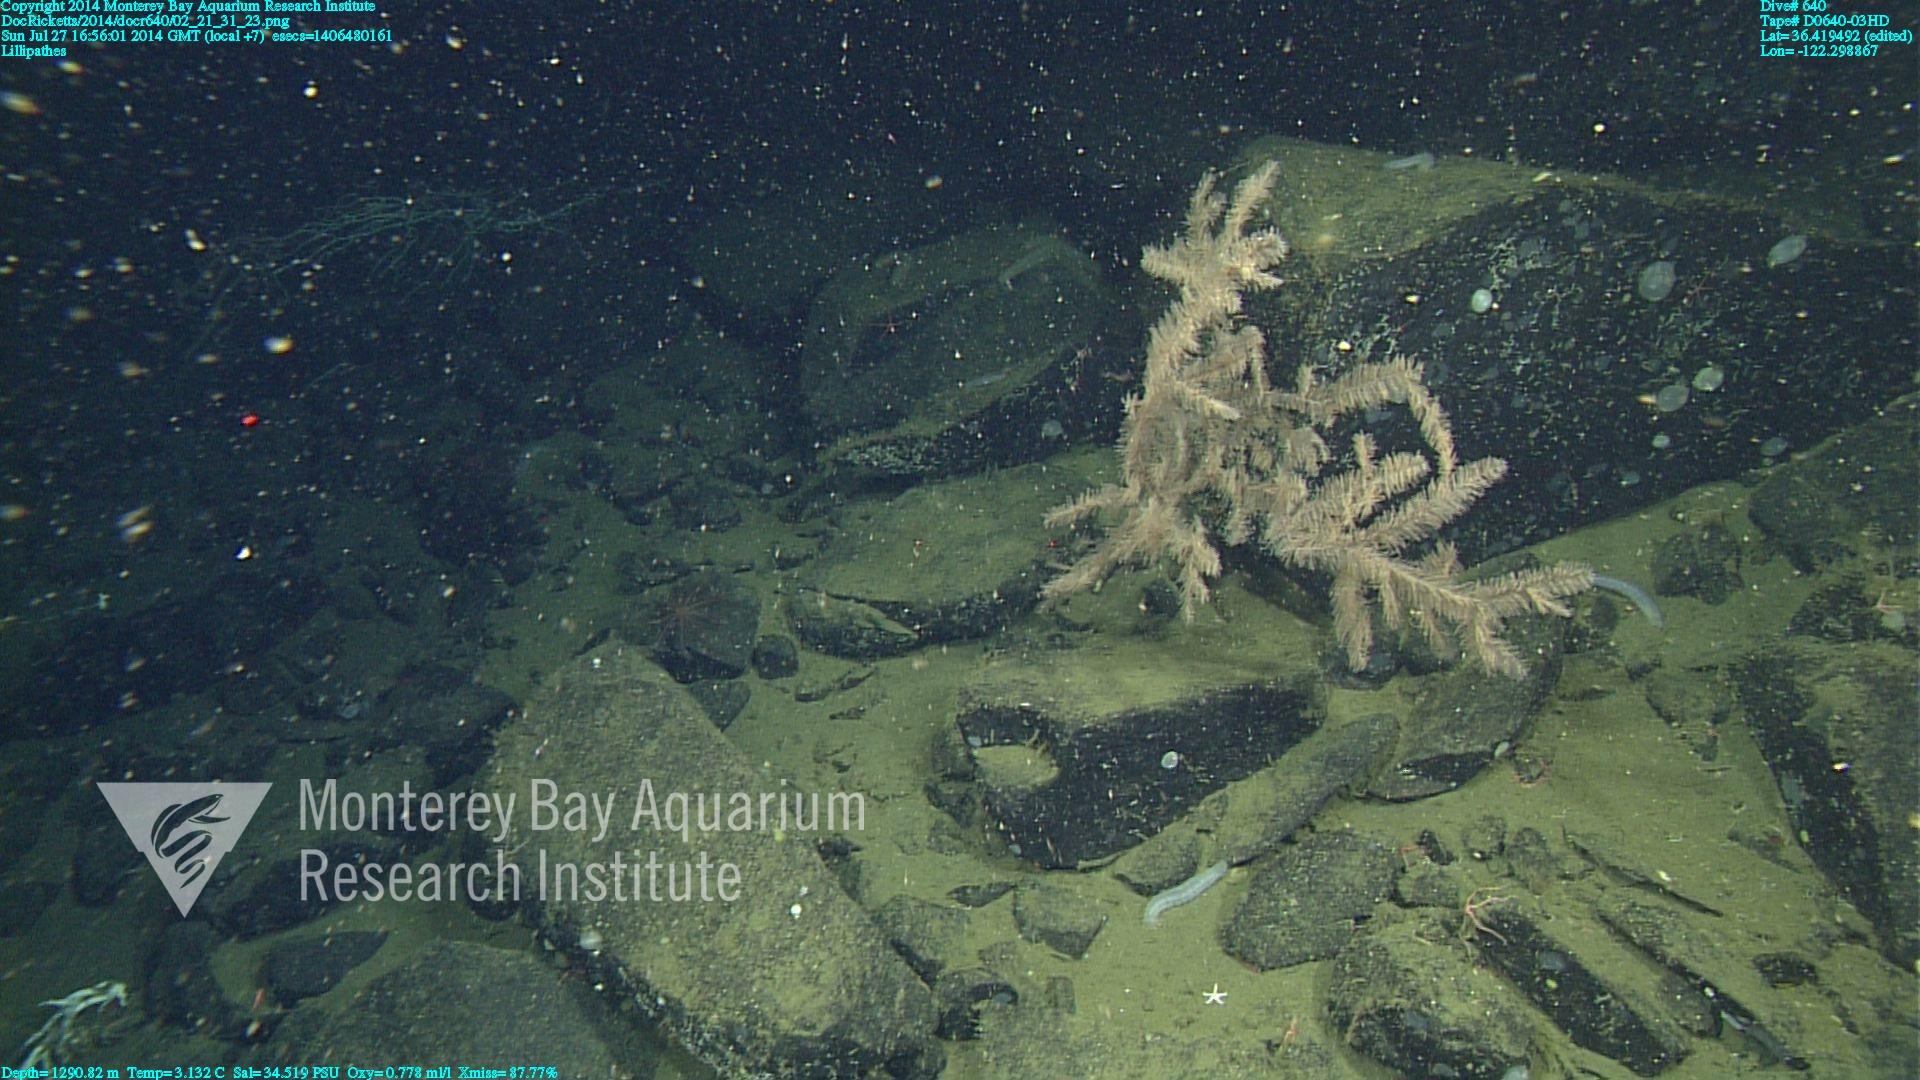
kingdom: Animalia
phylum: Cnidaria
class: Anthozoa
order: Antipatharia
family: Schizopathidae
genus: Lillipathes
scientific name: Lillipathes
